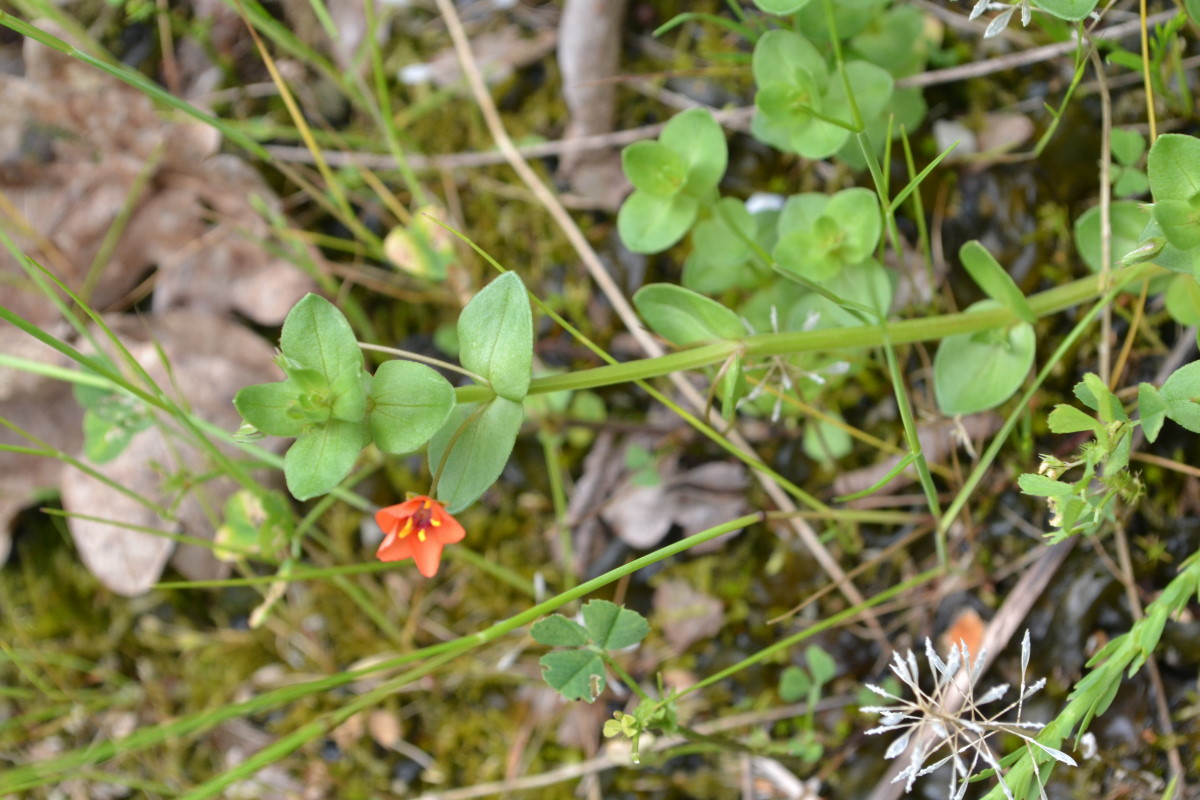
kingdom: Plantae
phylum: Tracheophyta
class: Magnoliopsida
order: Ericales
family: Primulaceae
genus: Lysimachia
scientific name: Lysimachia arvensis
